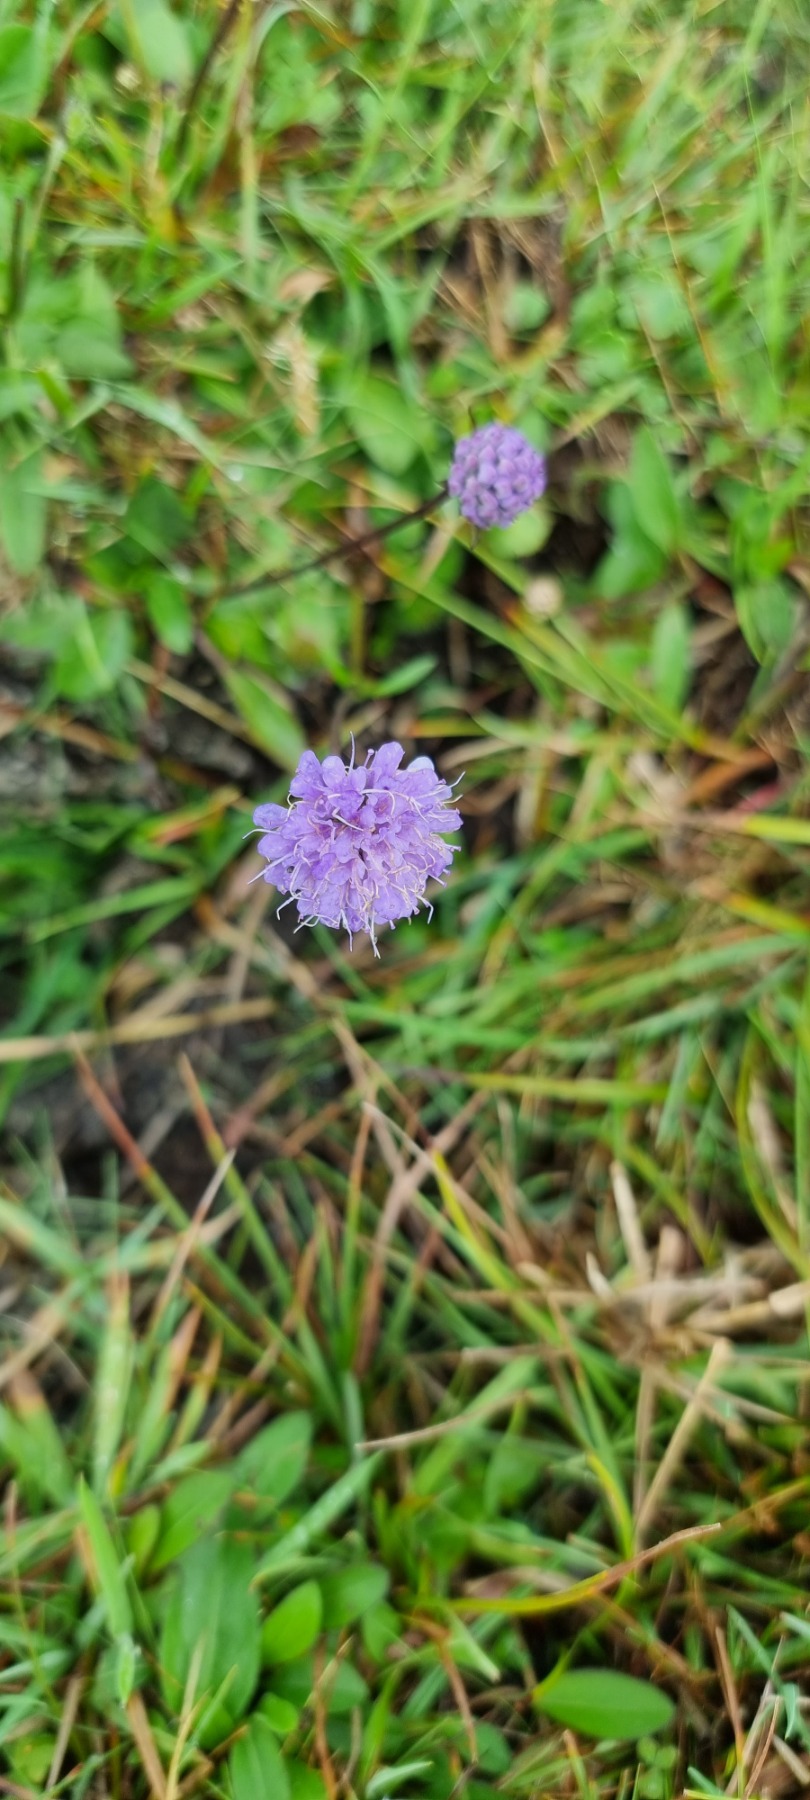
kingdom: Plantae
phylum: Tracheophyta
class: Magnoliopsida
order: Dipsacales
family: Caprifoliaceae
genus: Succisa
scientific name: Succisa pratensis
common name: Djævelsbid
